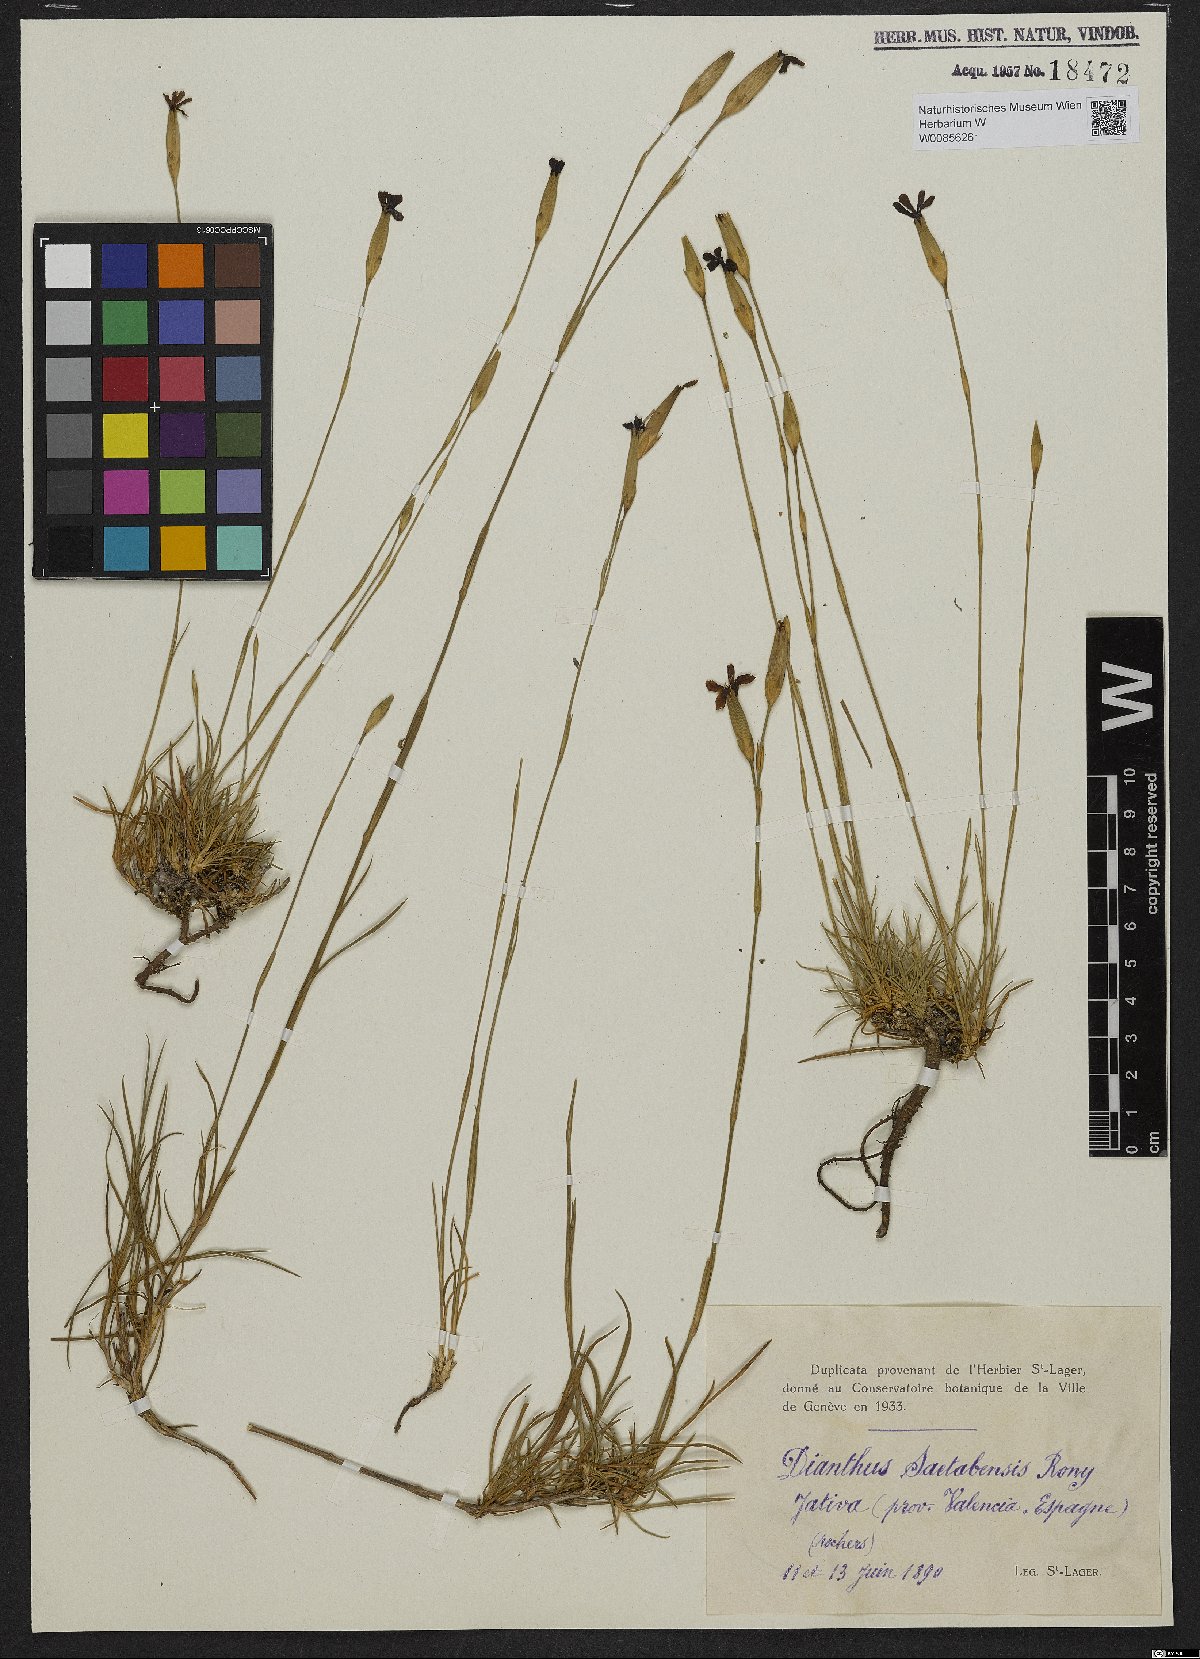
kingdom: Plantae
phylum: Tracheophyta
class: Magnoliopsida
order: Caryophyllales
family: Caryophyllaceae
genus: Dianthus
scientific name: Dianthus saetabensis
